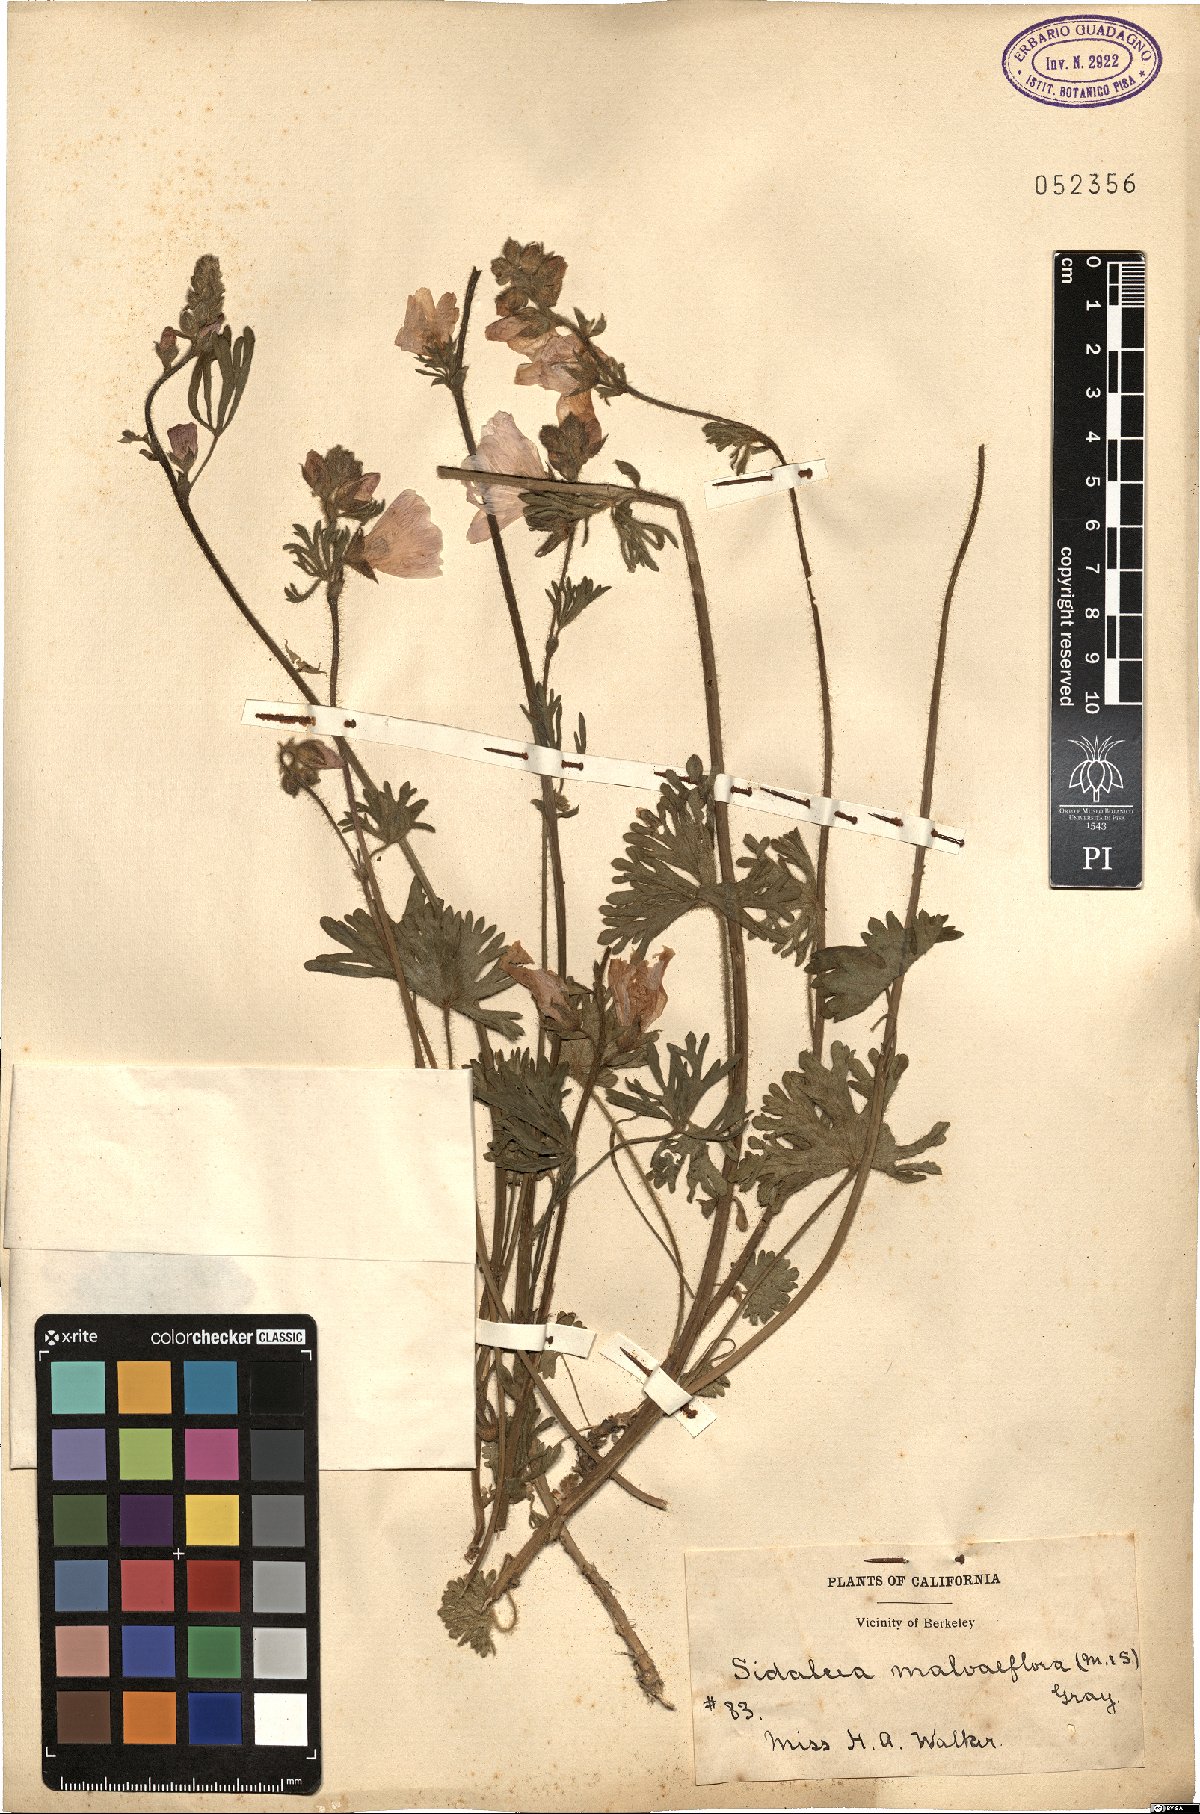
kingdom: Plantae
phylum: Tracheophyta
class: Magnoliopsida
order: Malvales
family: Malvaceae
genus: Sidalcea
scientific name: Sidalcea malviflora
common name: Greek mallow
